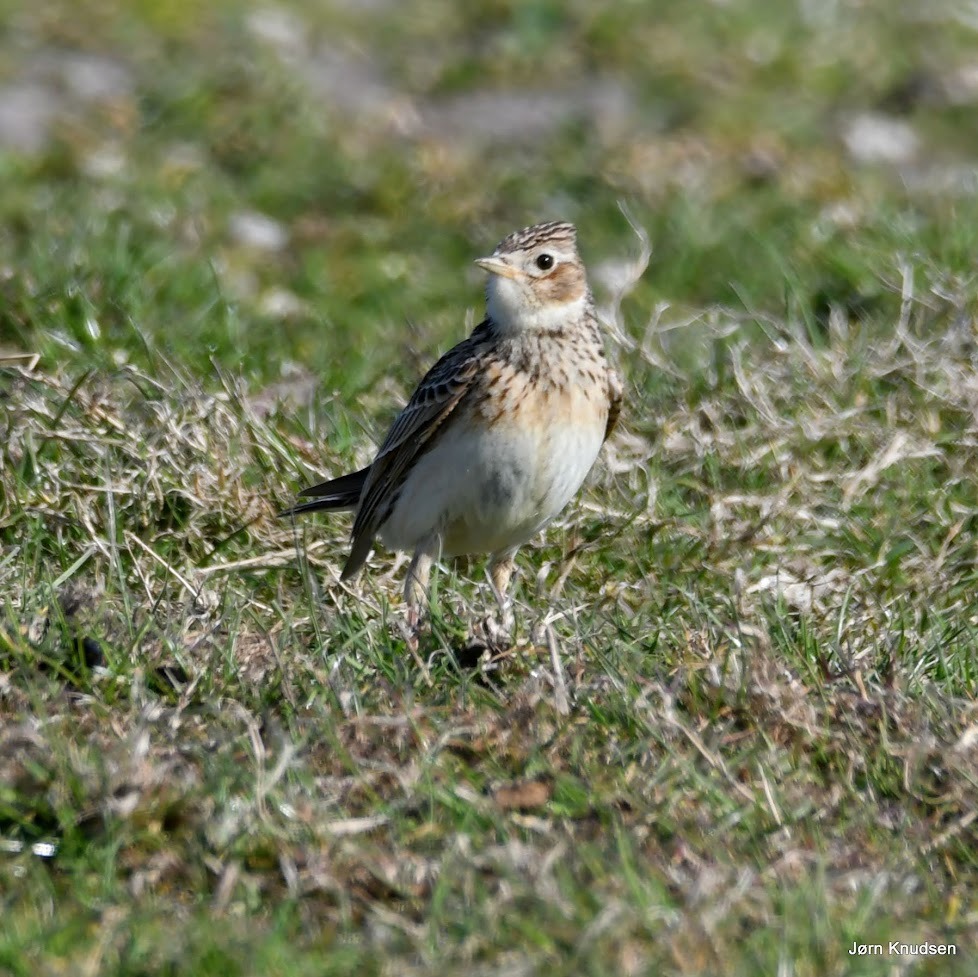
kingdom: Animalia
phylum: Chordata
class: Aves
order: Passeriformes
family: Alaudidae
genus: Alauda
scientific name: Alauda arvensis
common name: Sanglærke
